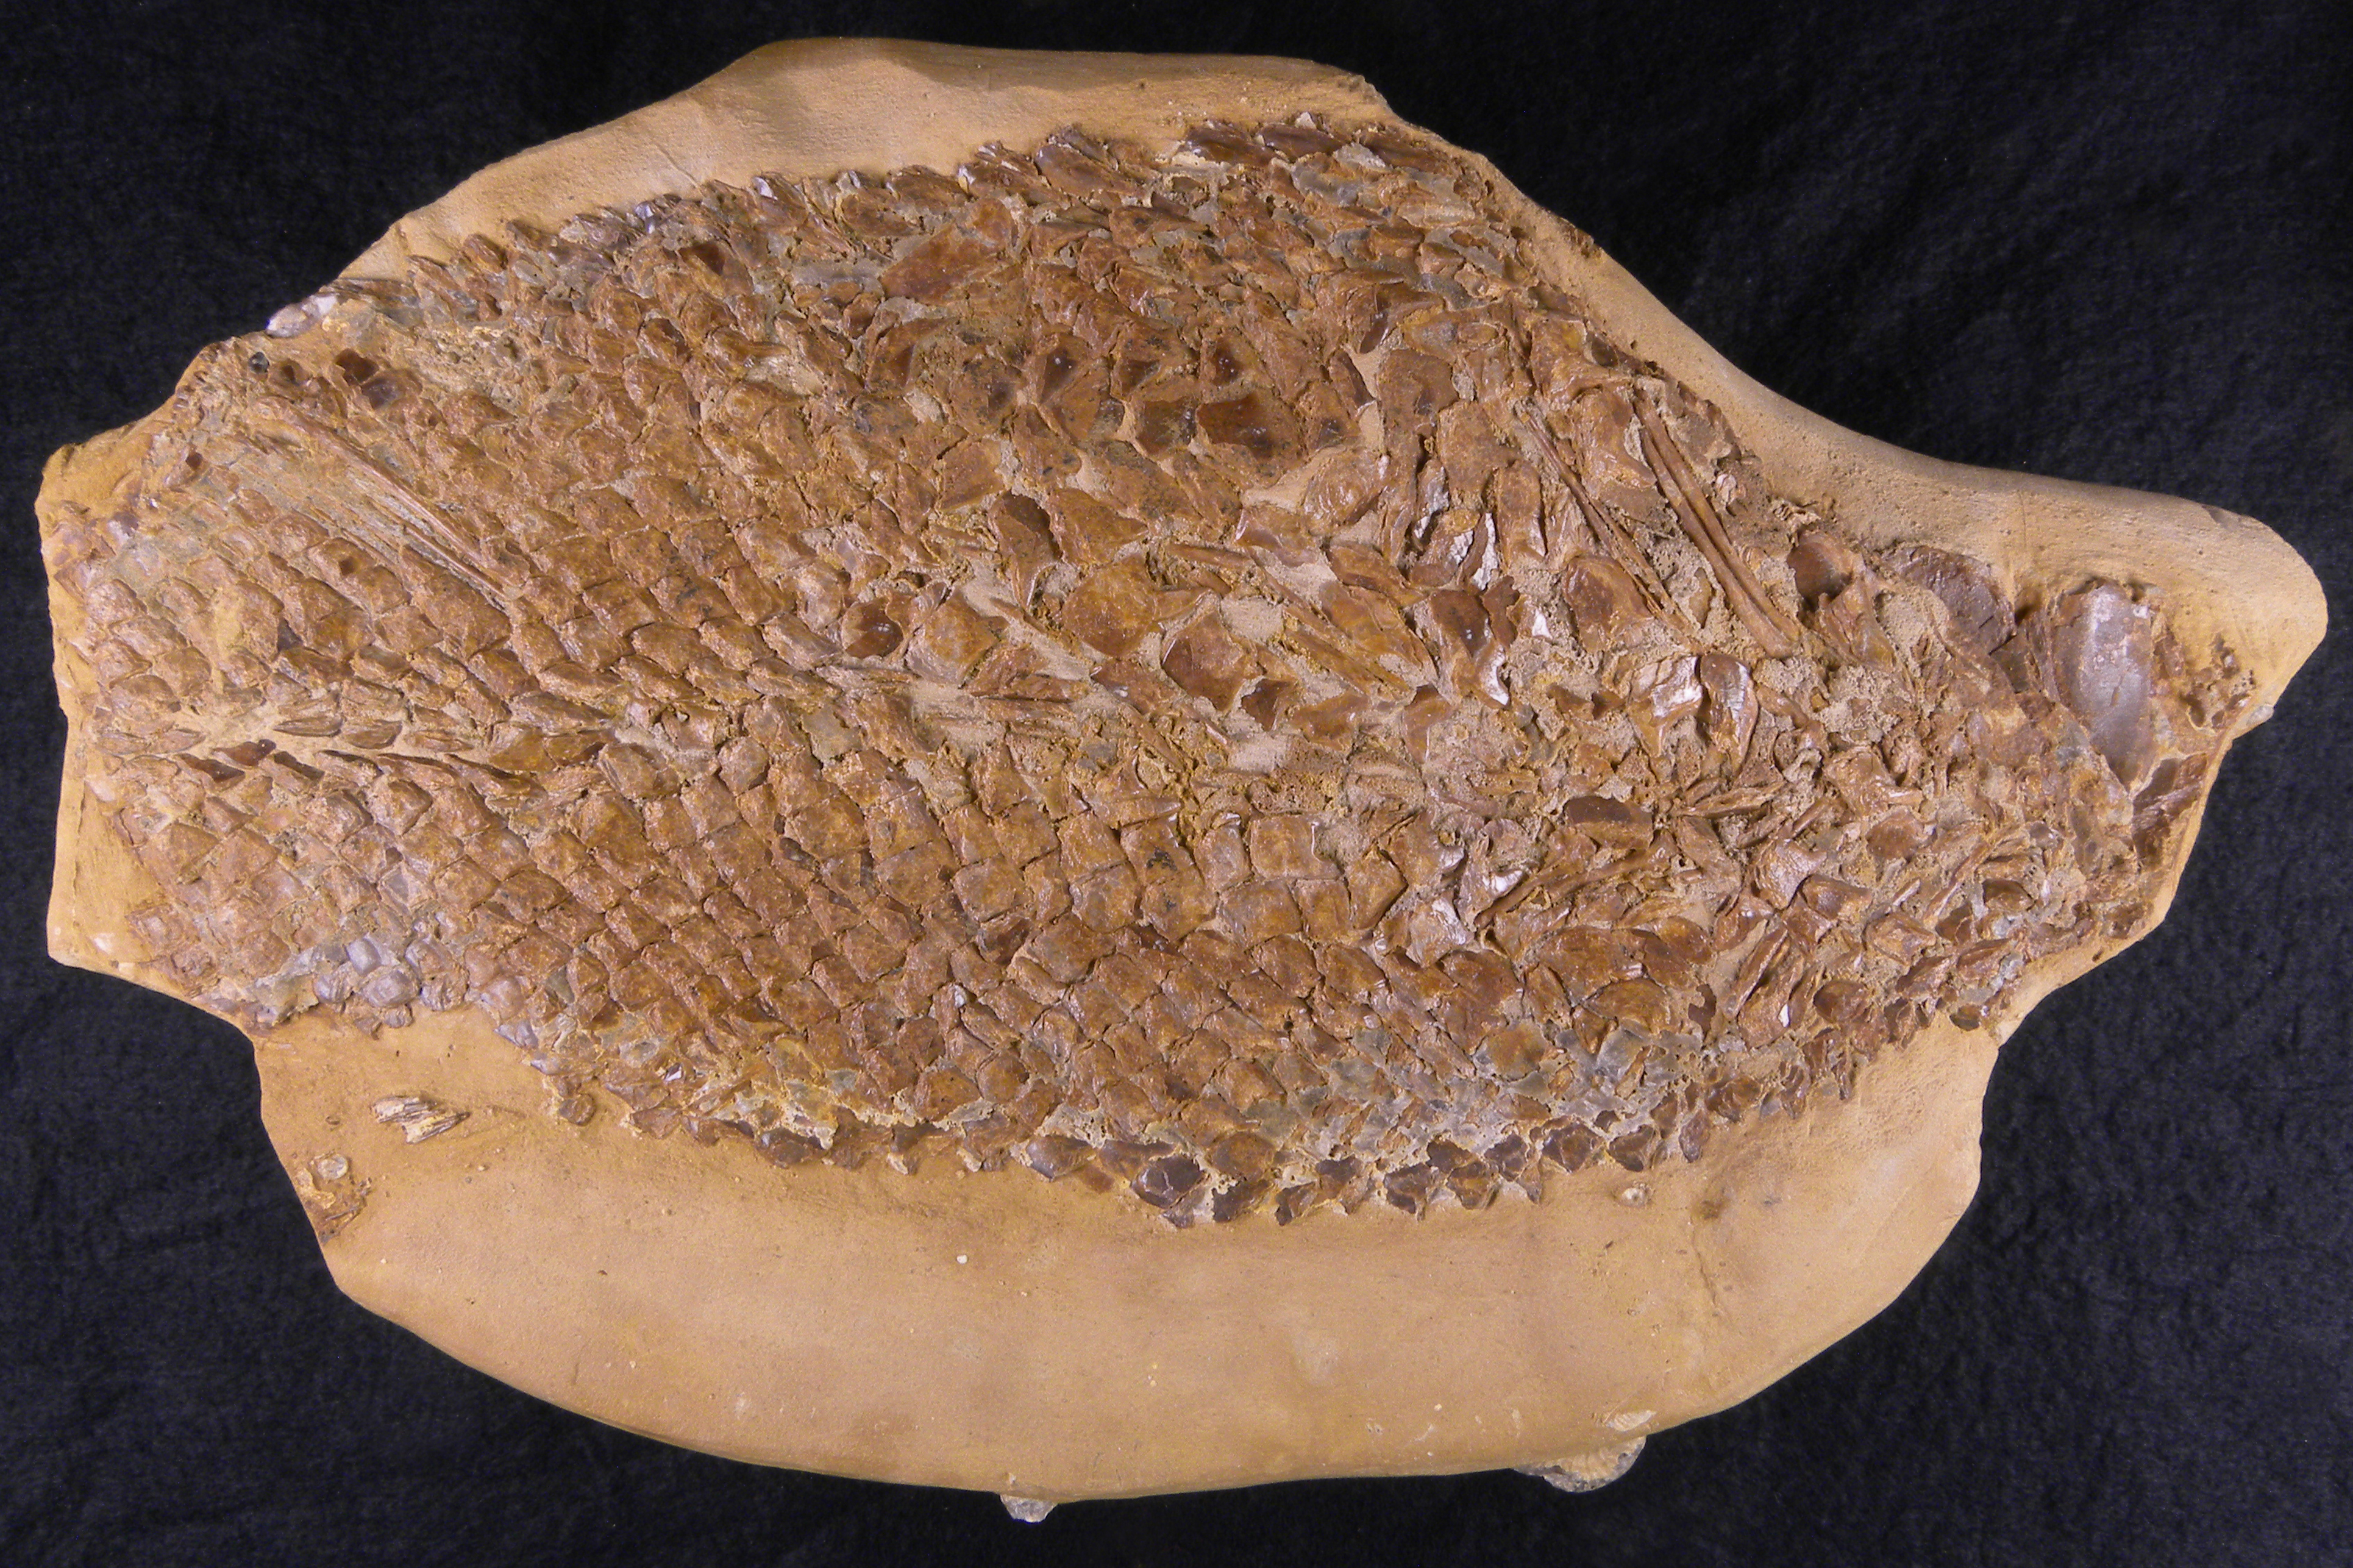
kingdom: Animalia
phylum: Chordata
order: Lepisosteiformes
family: Lepidotidae
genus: Lepidotes
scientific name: Lepidotes
